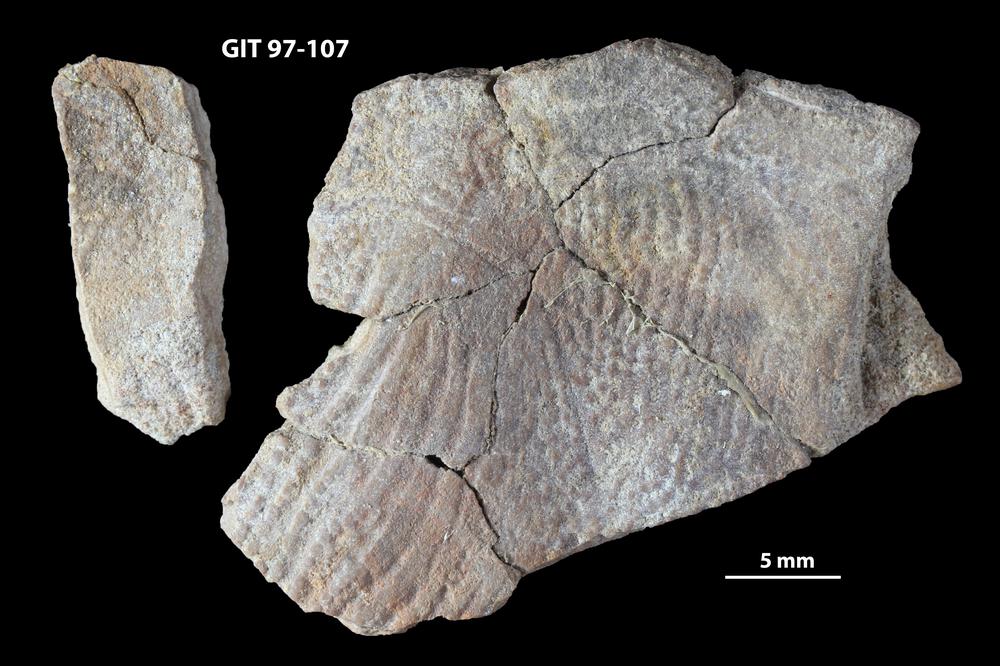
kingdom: Animalia
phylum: Chordata
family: Holonematidae
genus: Holonema
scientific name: Holonema
